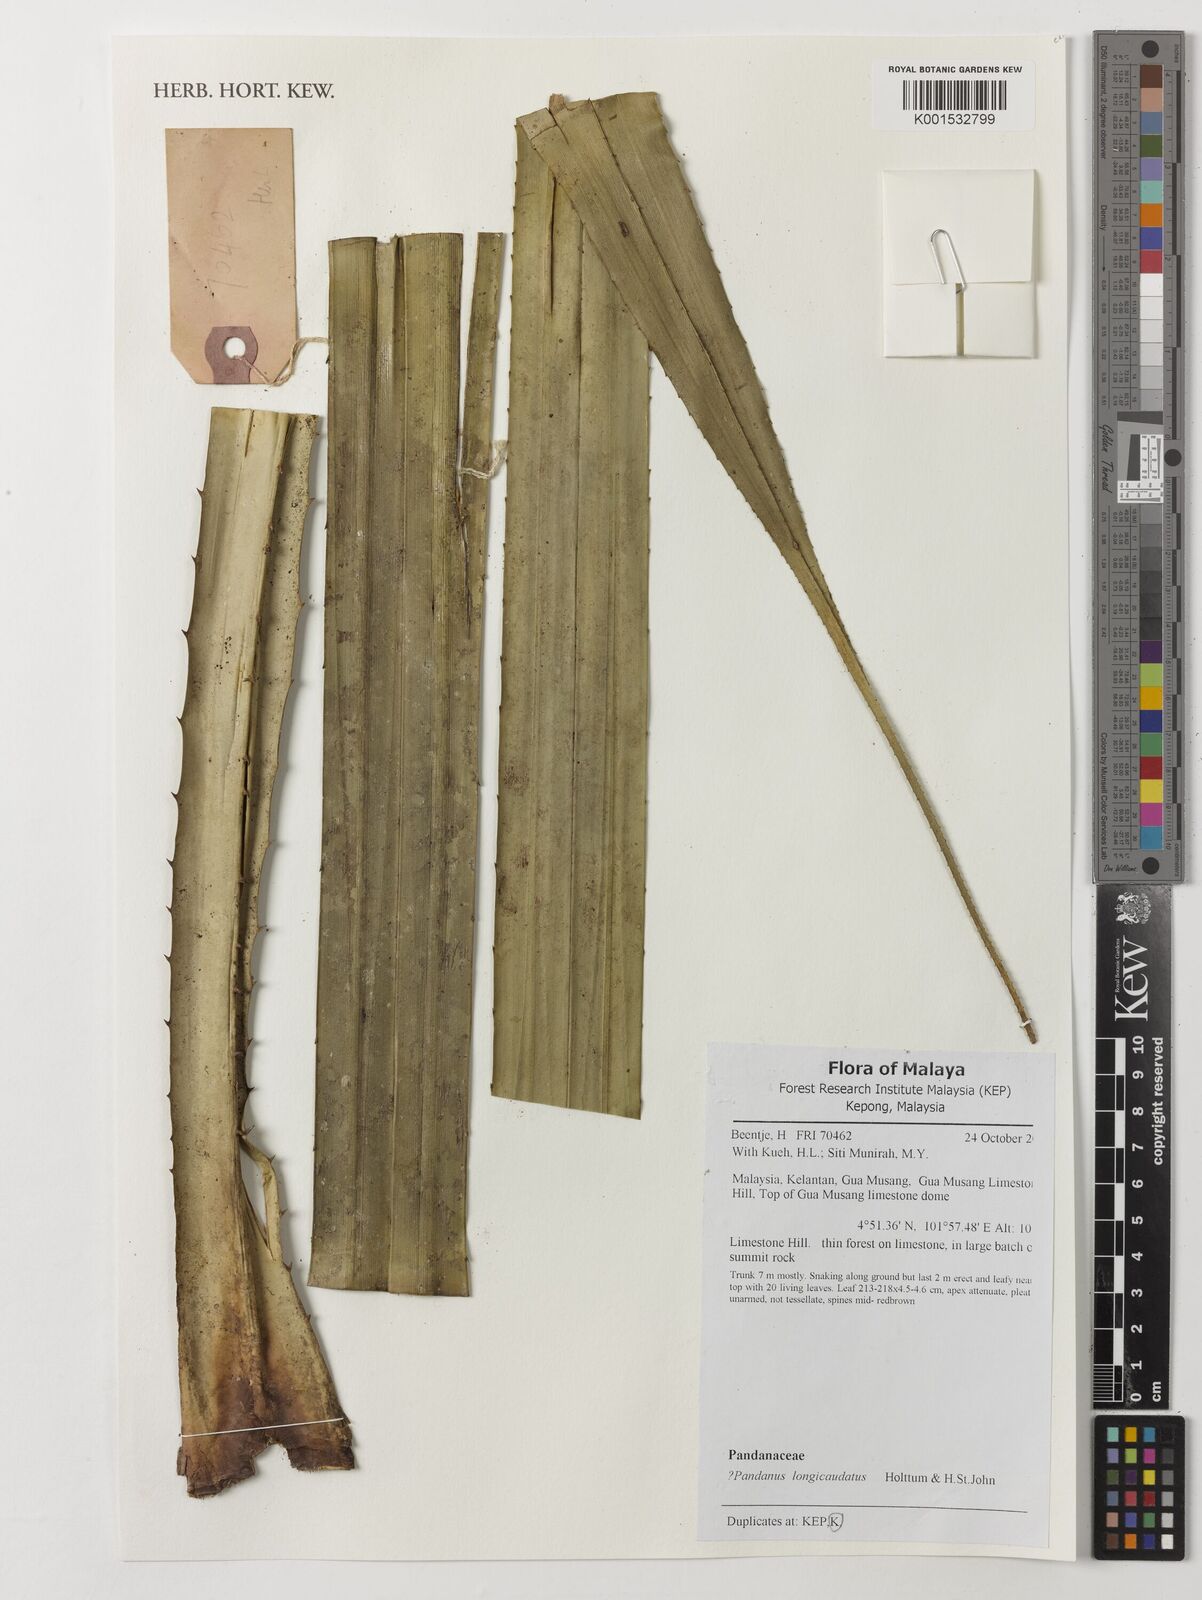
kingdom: Plantae
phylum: Tracheophyta
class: Liliopsida
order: Pandanales
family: Pandanaceae
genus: Pandanus
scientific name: Pandanus longicaudatus
